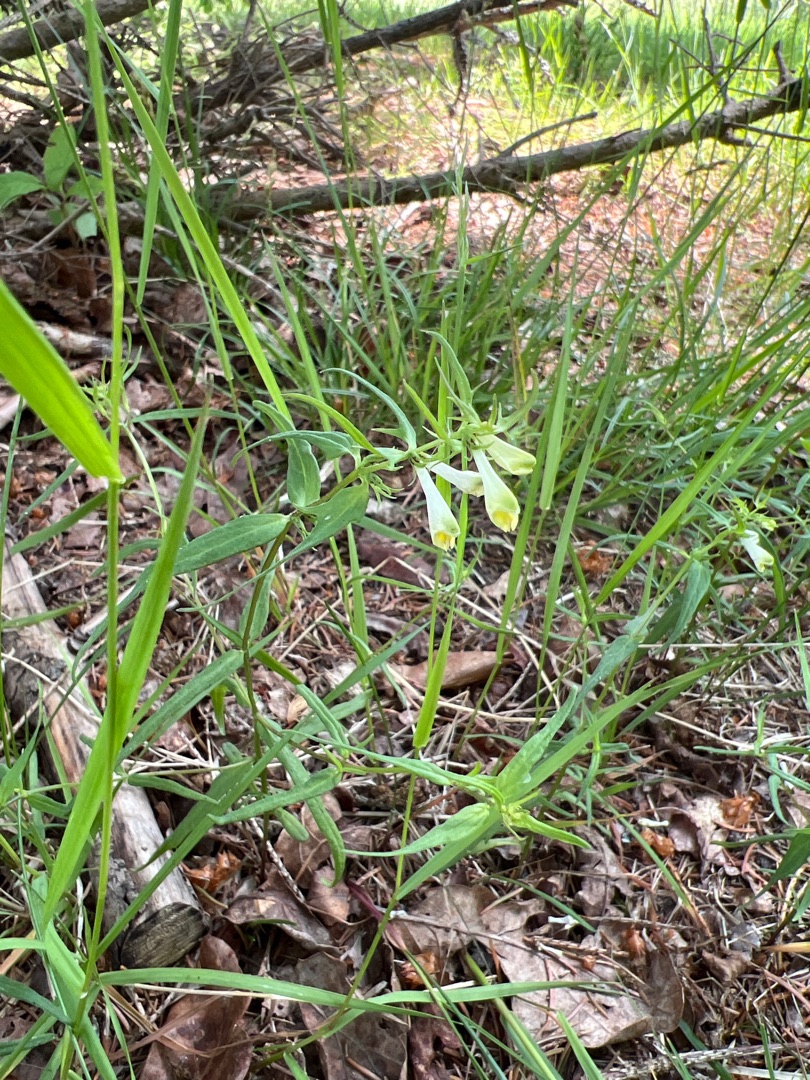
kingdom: Plantae
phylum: Tracheophyta
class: Magnoliopsida
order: Lamiales
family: Orobanchaceae
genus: Melampyrum
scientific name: Melampyrum pratense
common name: Almindelig kohvede
